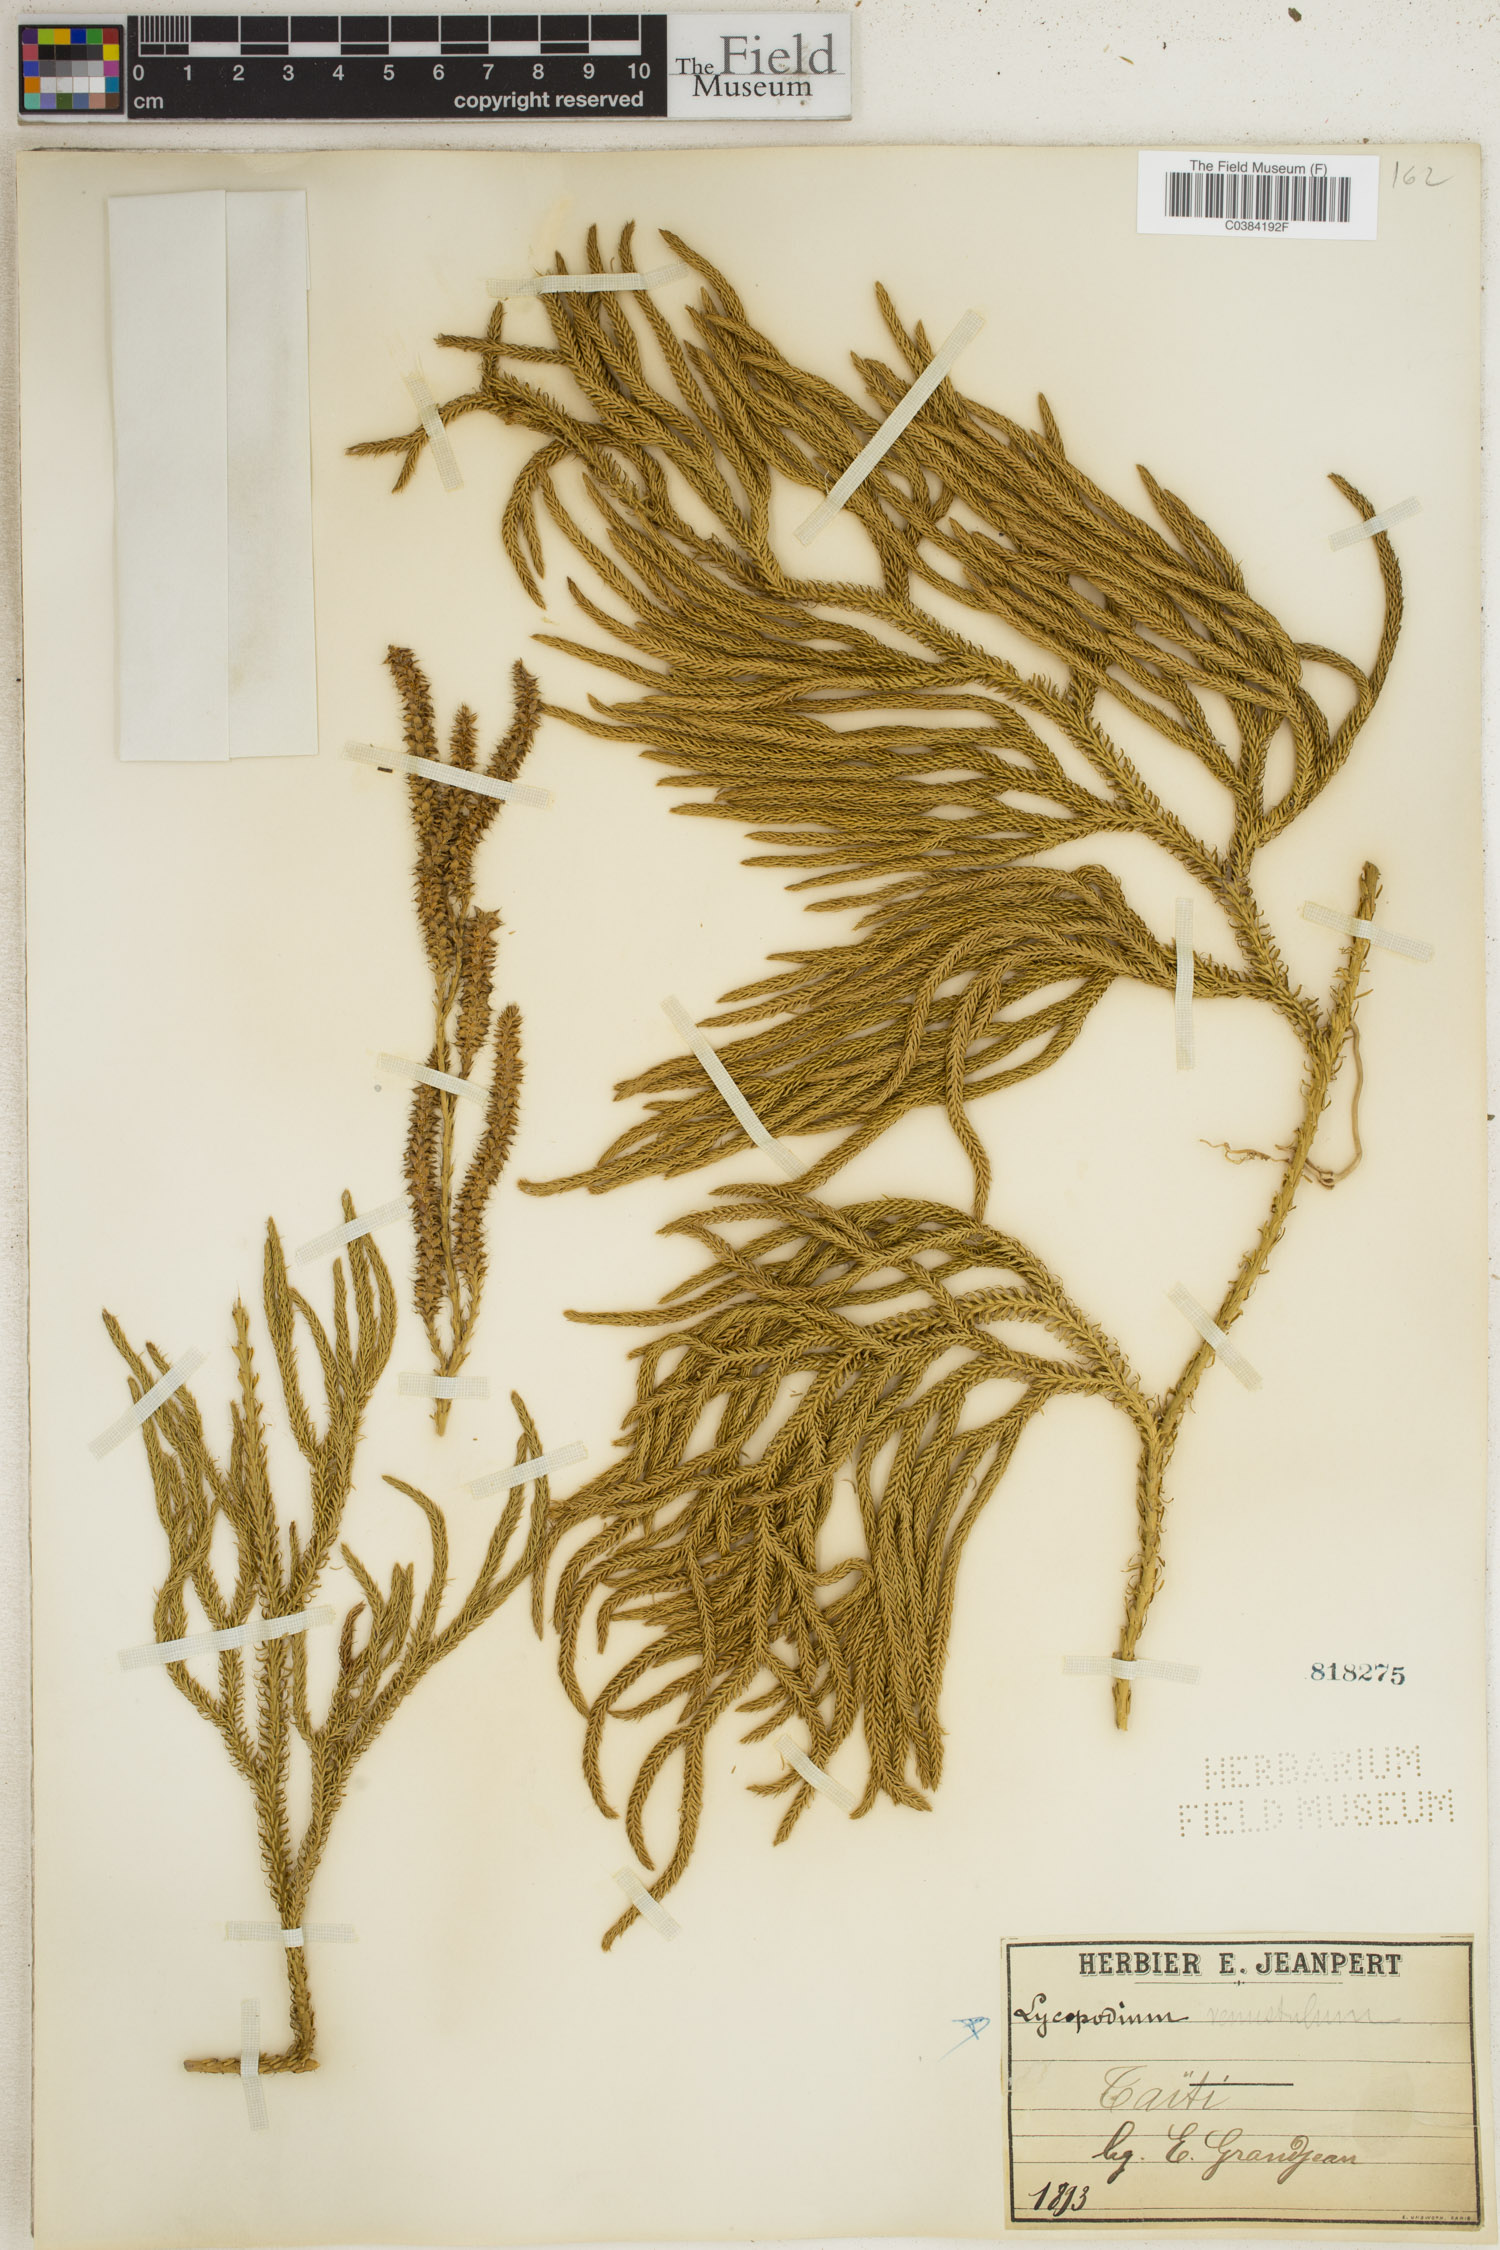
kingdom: Plantae
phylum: Tracheophyta
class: Lycopodiopsida
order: Lycopodiales
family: Lycopodiaceae
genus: Lycopodium
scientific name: Lycopodium venustulum
